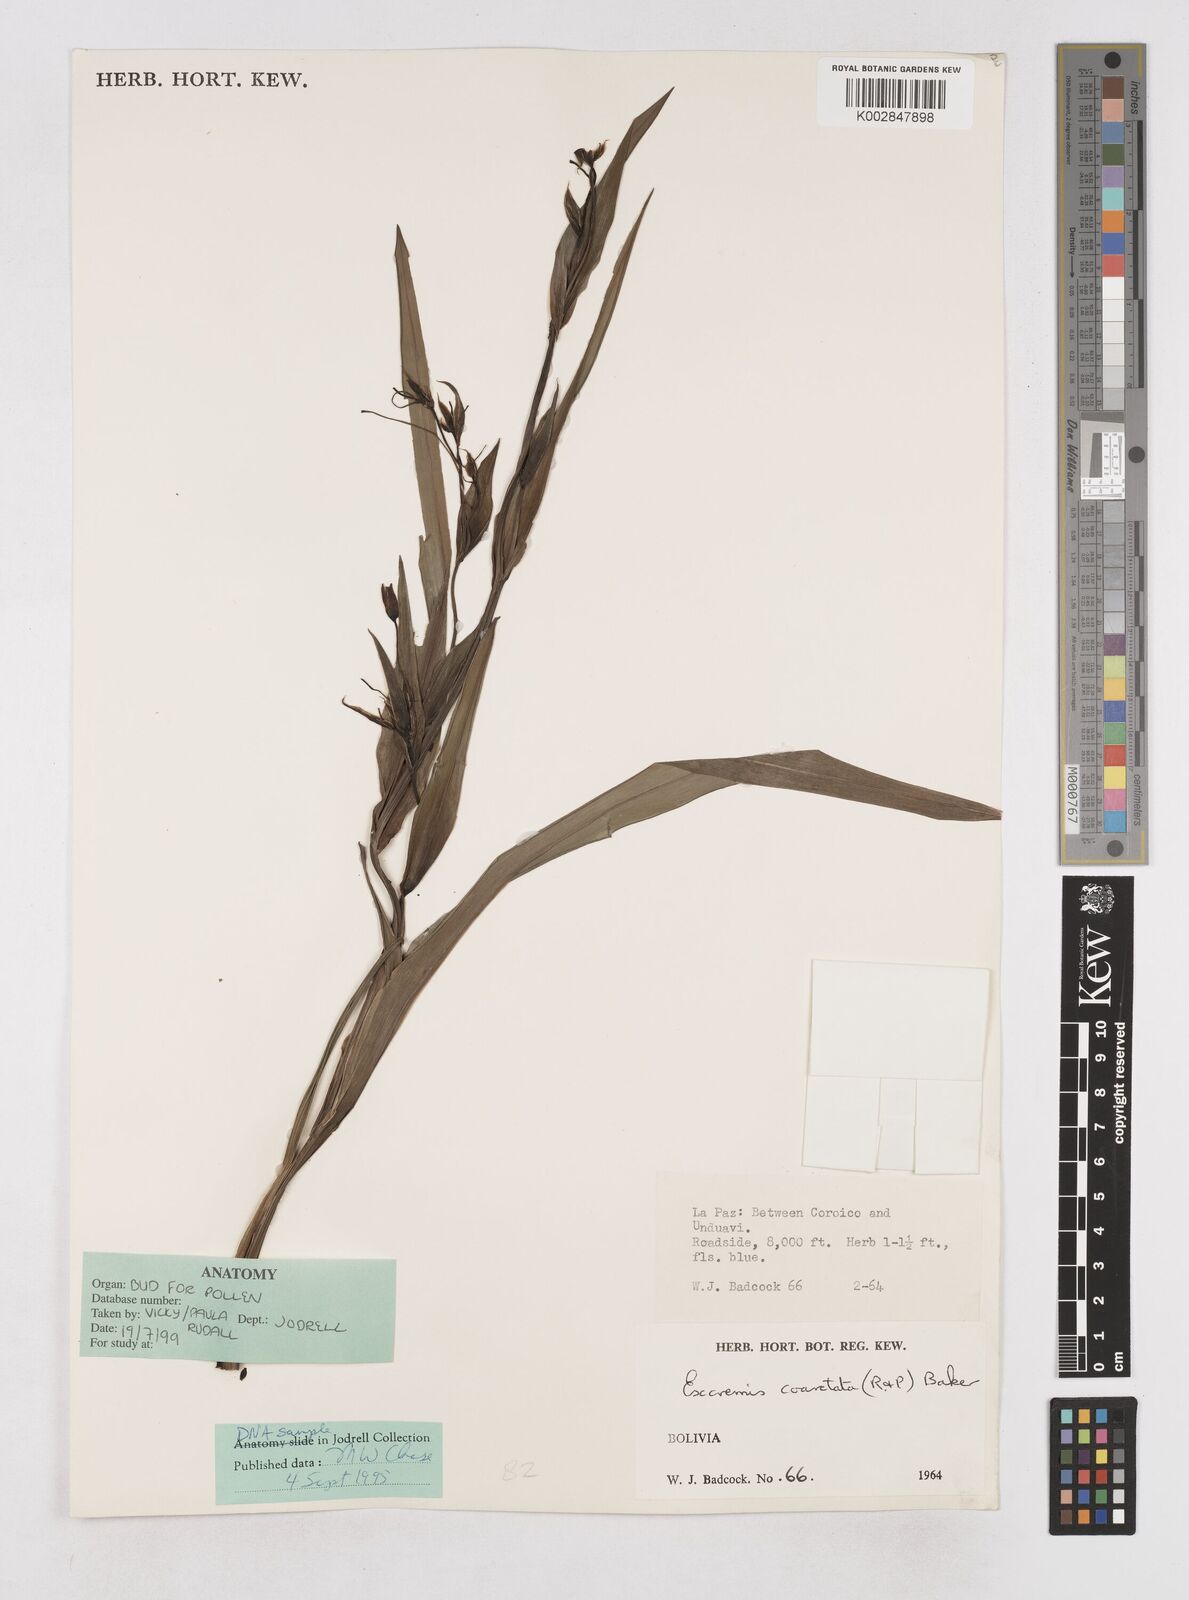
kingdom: Plantae
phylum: Tracheophyta
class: Liliopsida
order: Asparagales
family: Asphodelaceae
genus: Excremis
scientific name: Excremis coarctata
